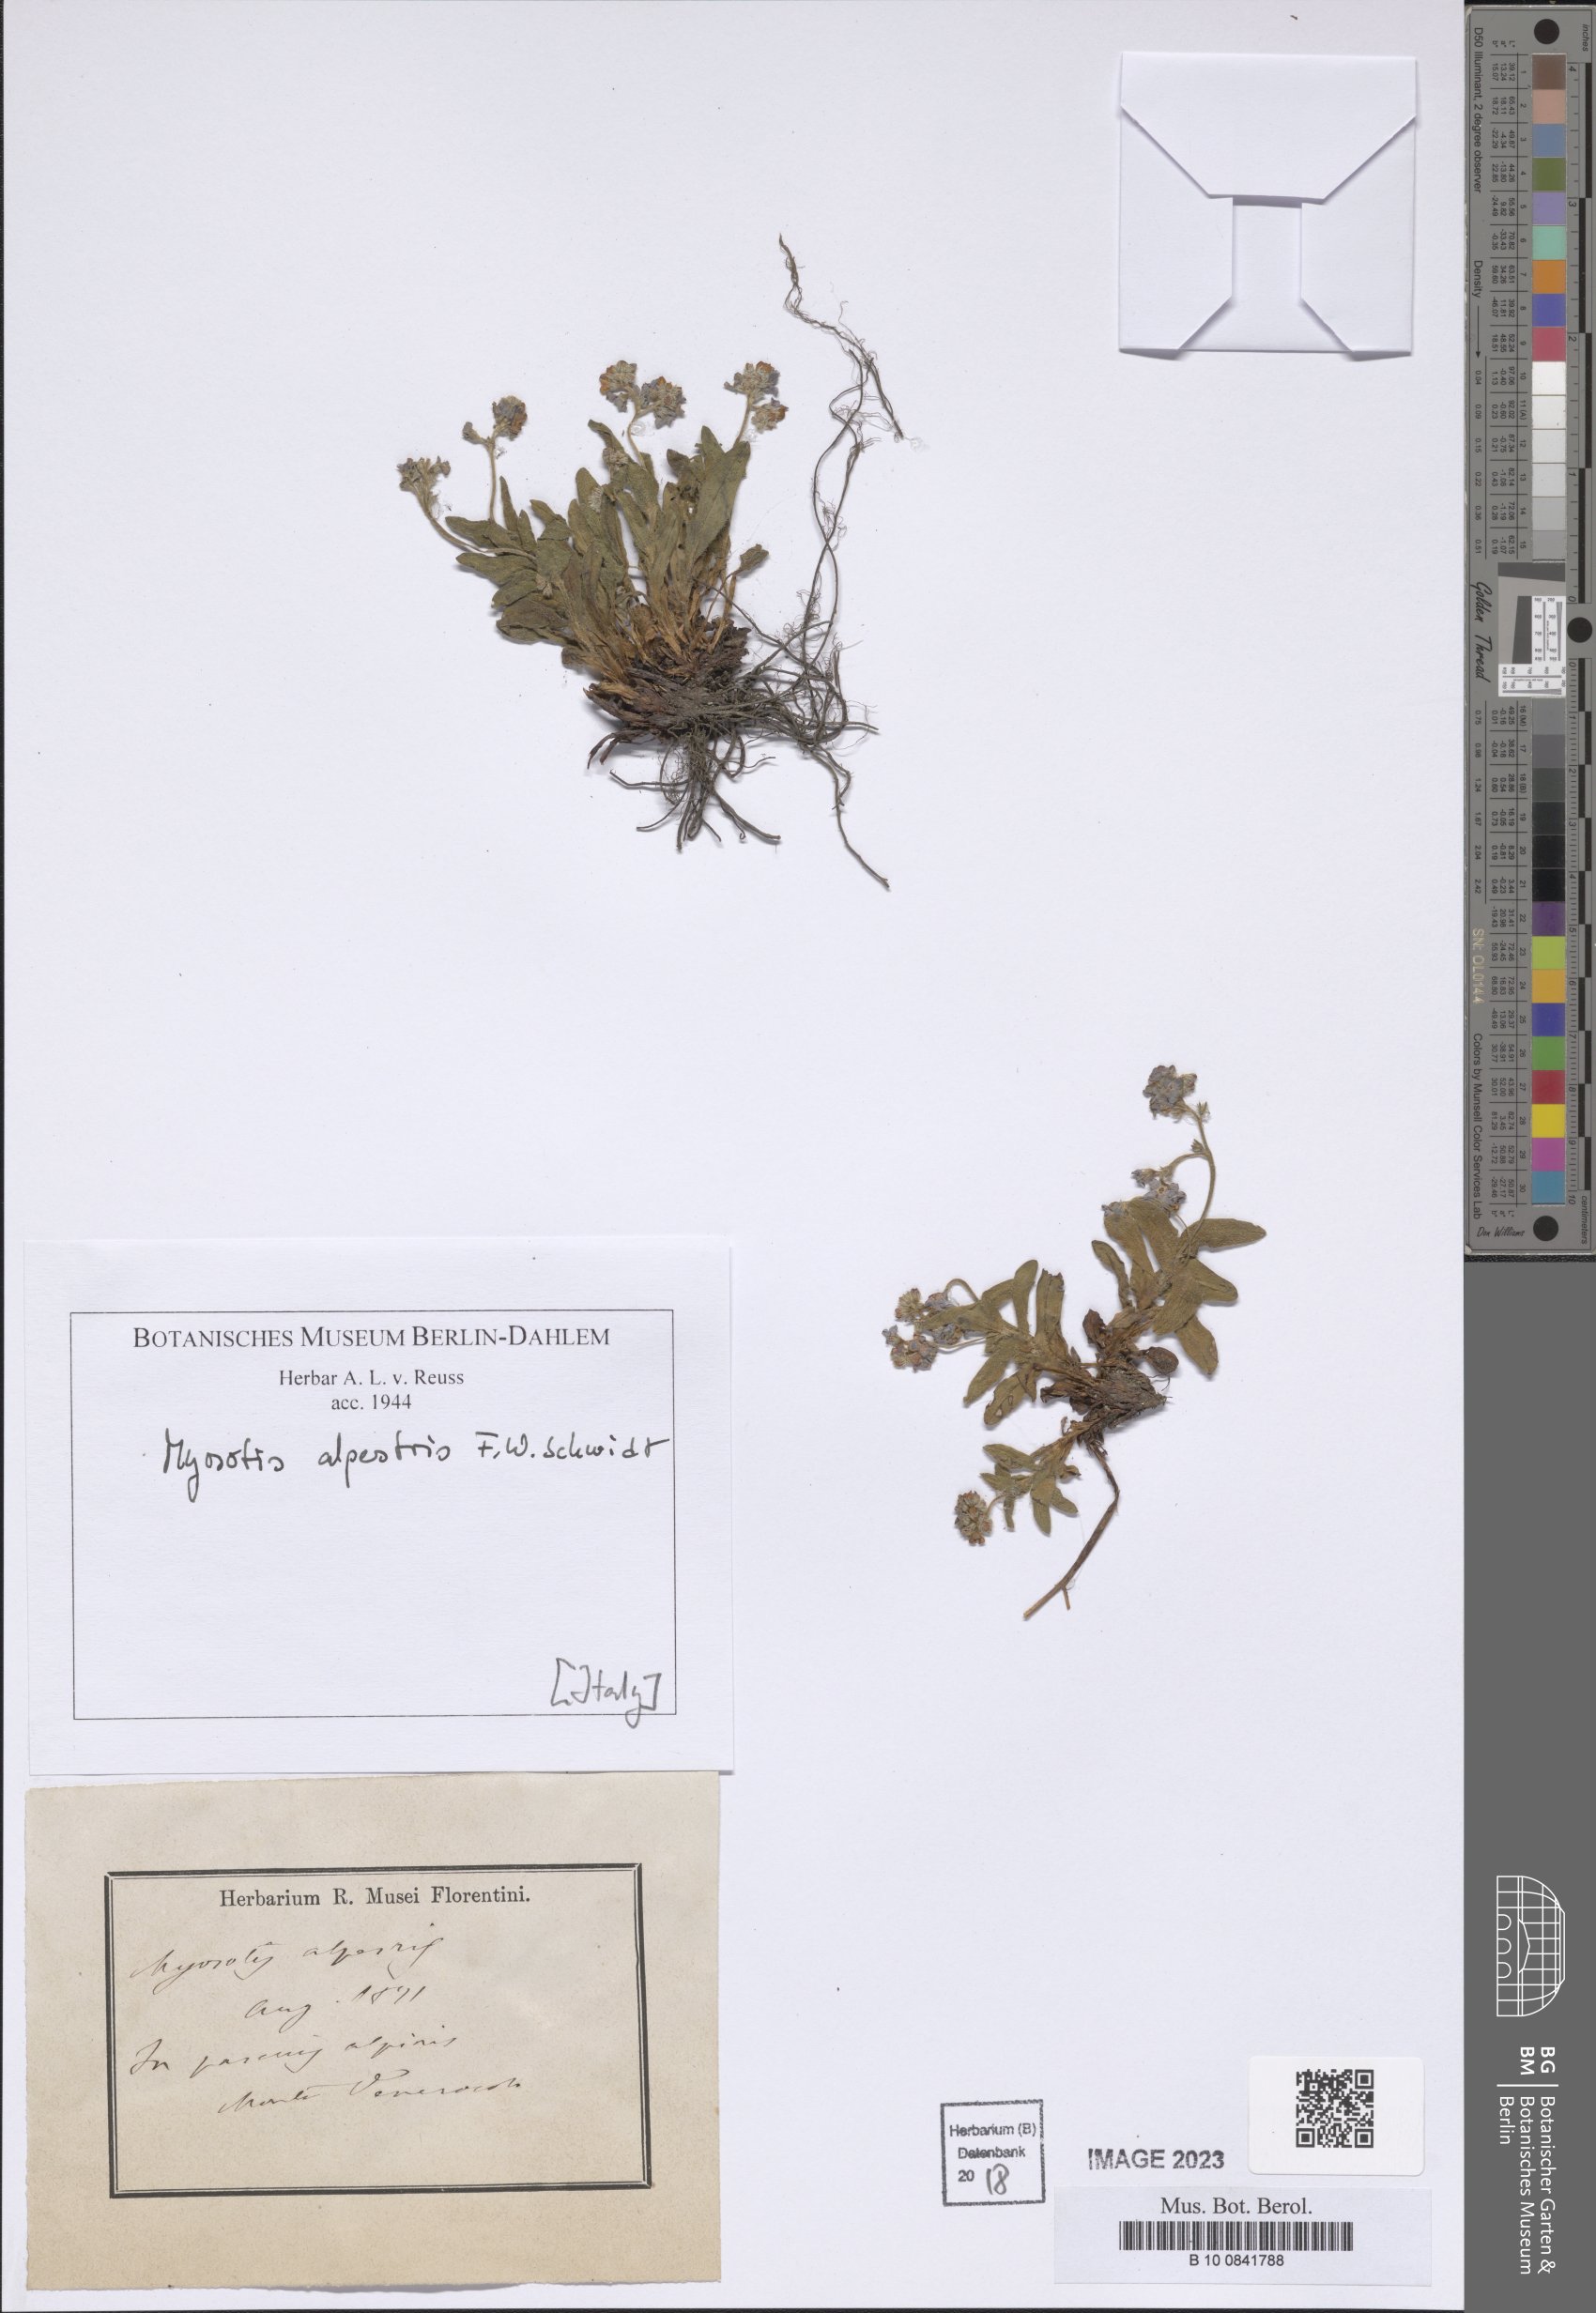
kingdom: Plantae
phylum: Tracheophyta
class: Magnoliopsida
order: Boraginales
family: Boraginaceae
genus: Myosotis
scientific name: Myosotis alpestris
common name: Alpine forget-me-not
